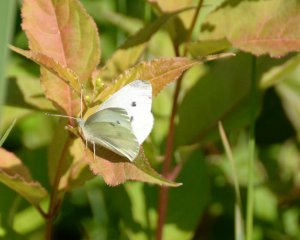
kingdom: Animalia
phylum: Arthropoda
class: Insecta
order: Lepidoptera
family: Pieridae
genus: Pieris
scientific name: Pieris rapae
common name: Cabbage White
